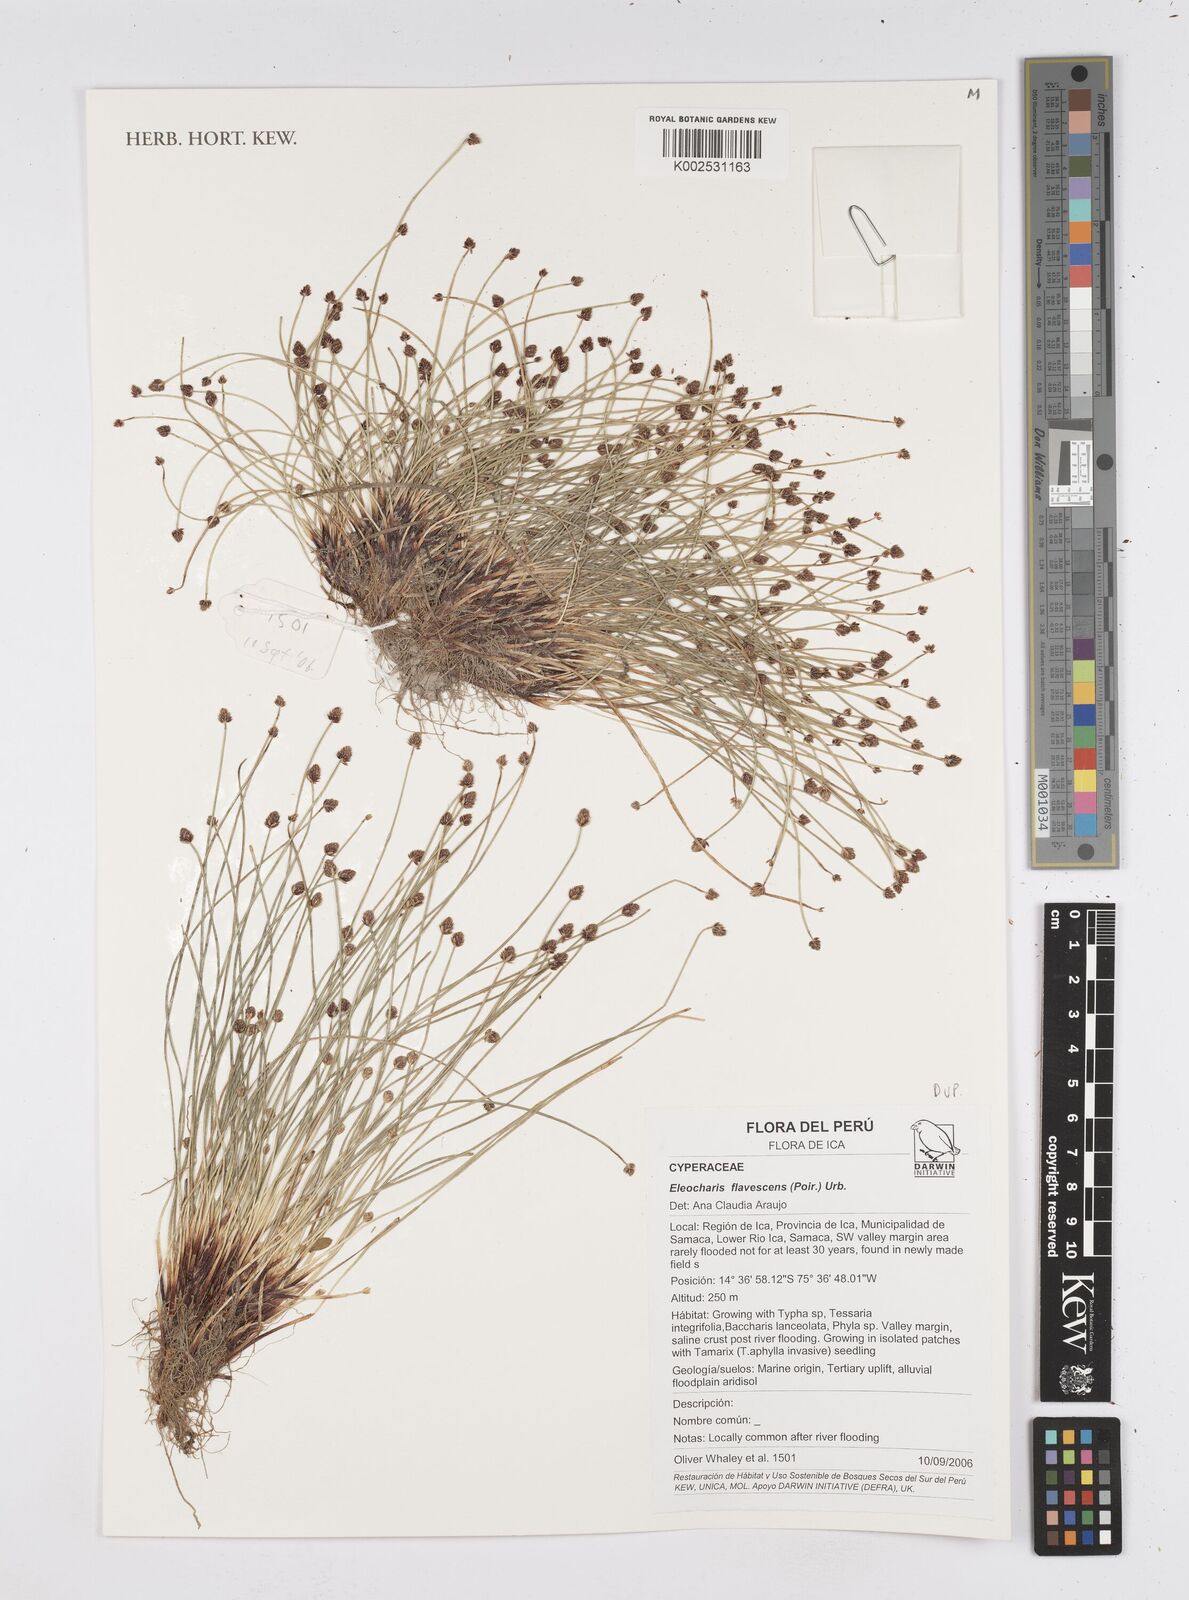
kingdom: Plantae
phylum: Tracheophyta
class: Liliopsida
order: Poales
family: Cyperaceae
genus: Eleocharis
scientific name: Eleocharis flavescens
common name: Yellow spikerush
